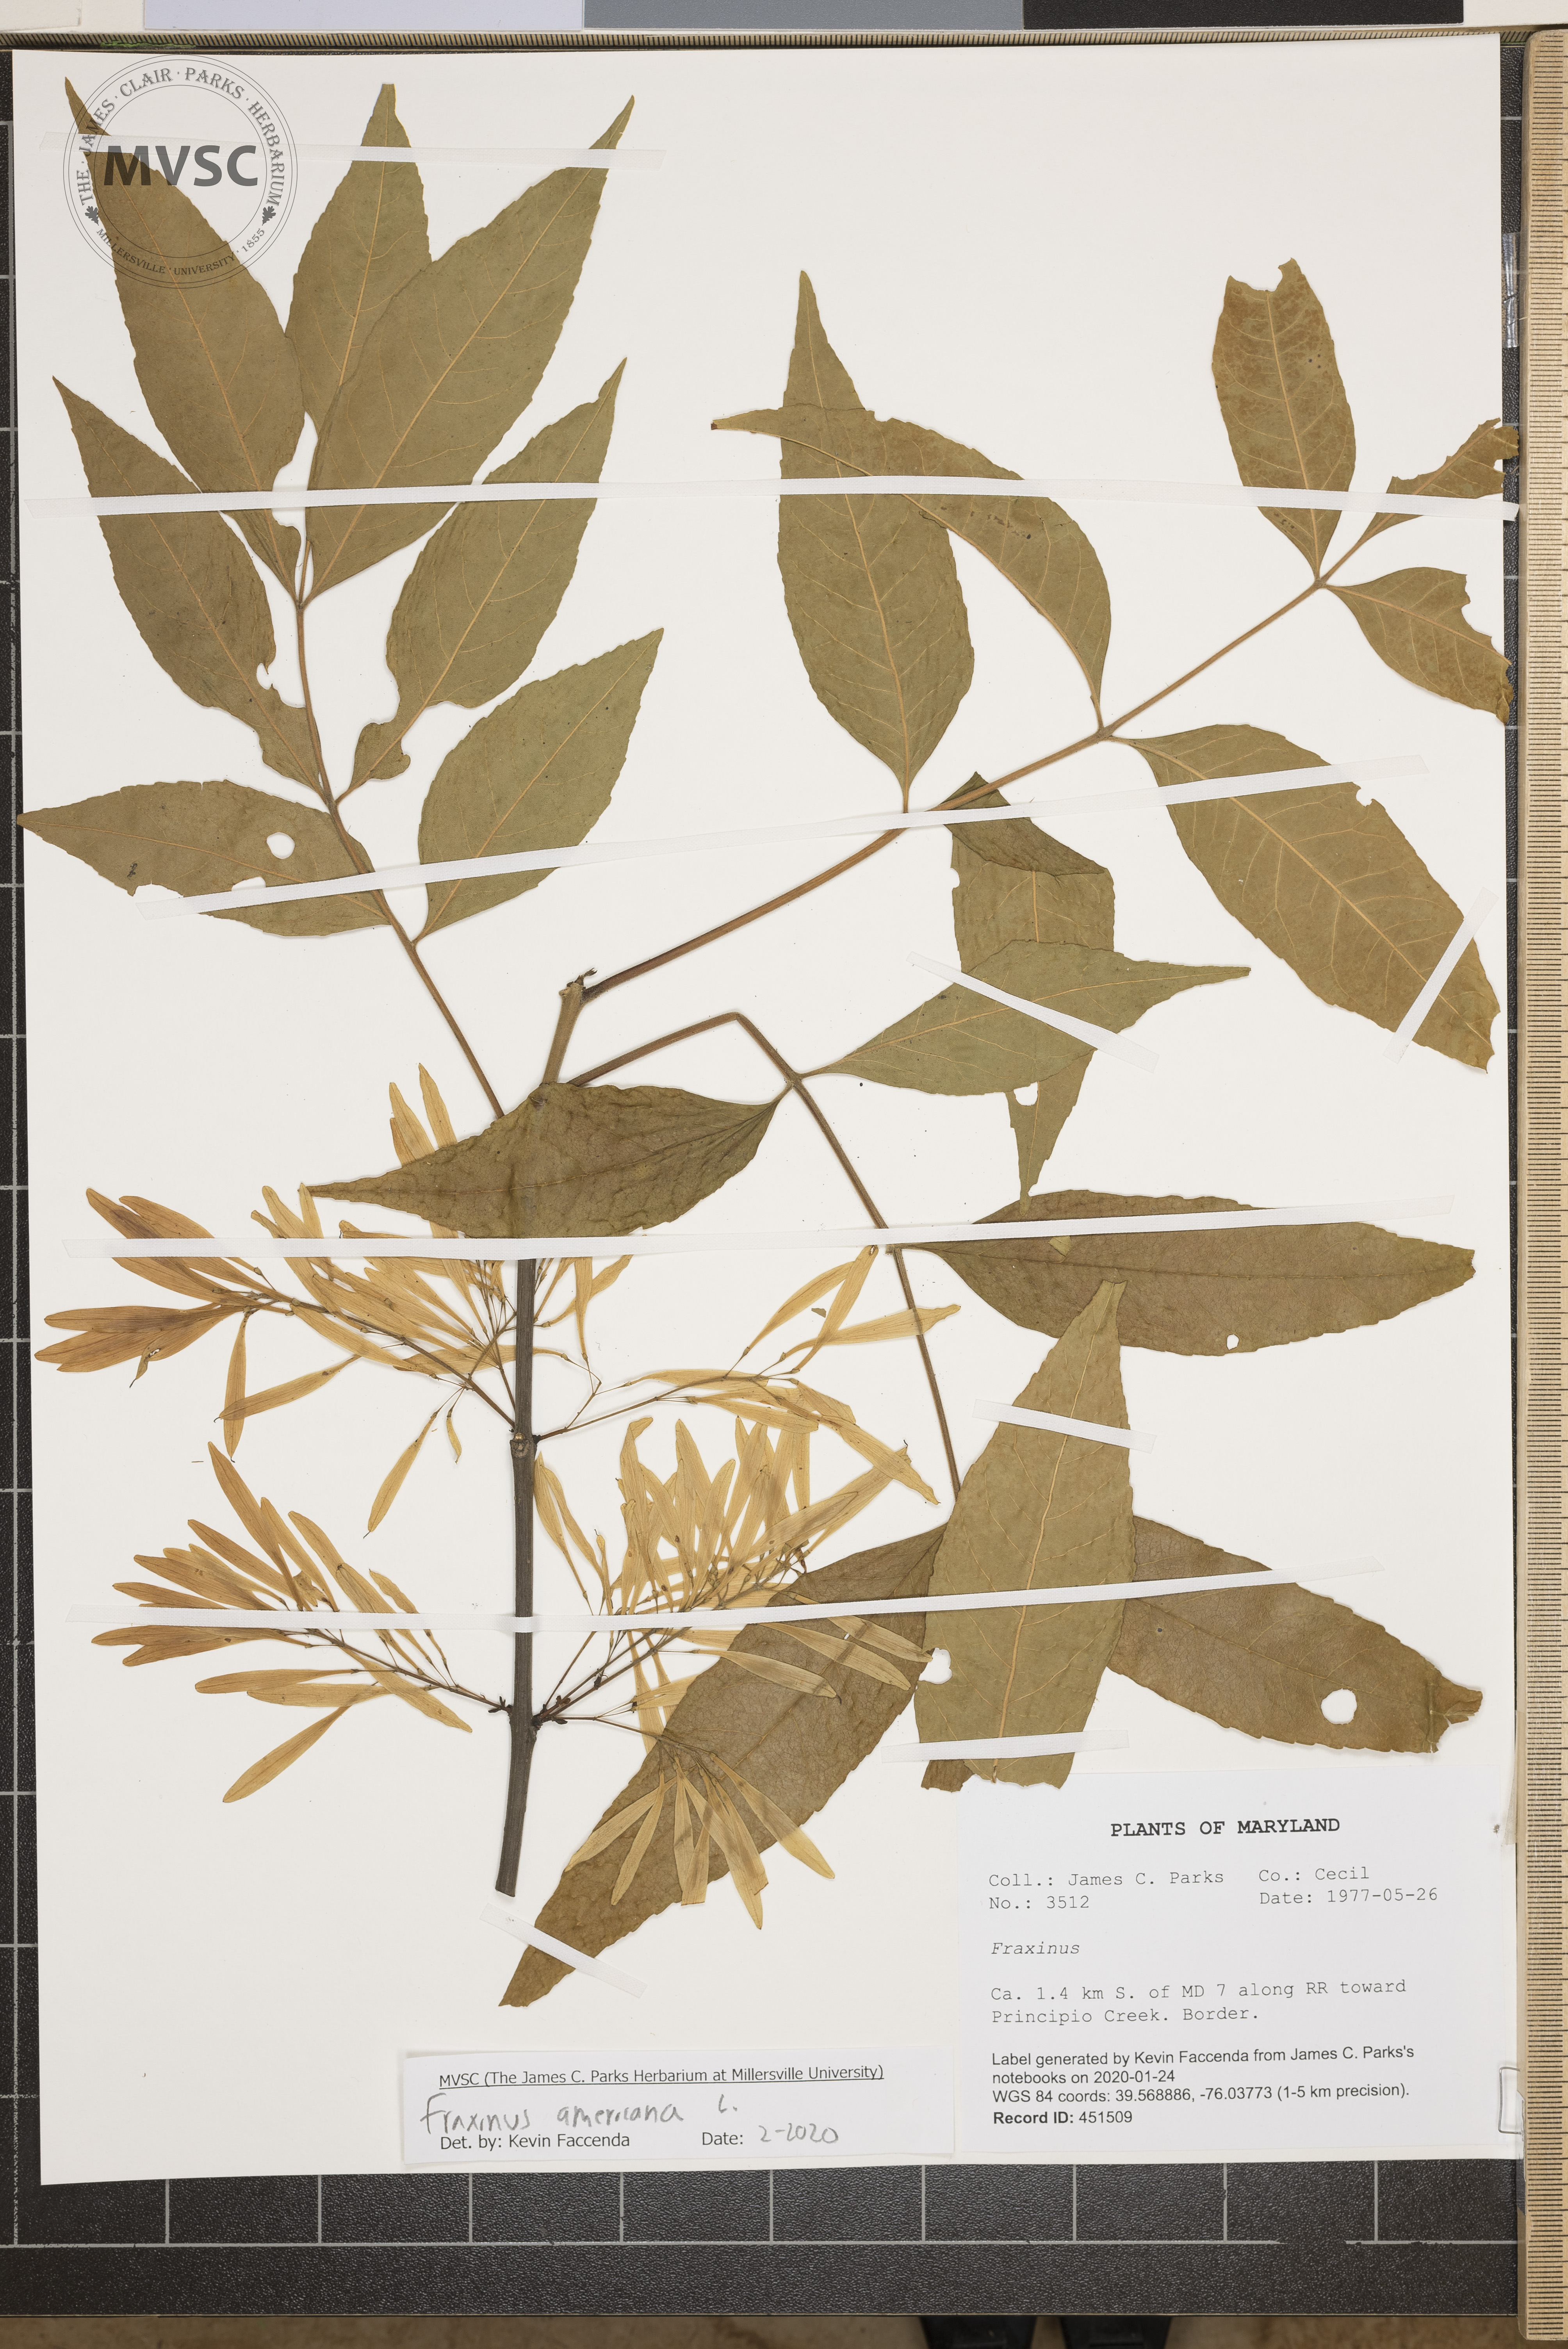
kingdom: Plantae
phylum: Tracheophyta
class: Magnoliopsida
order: Lamiales
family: Oleaceae
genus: Fraxinus
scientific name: Fraxinus americana
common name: White ash
